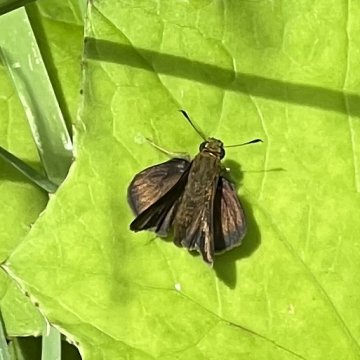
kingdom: Animalia
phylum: Arthropoda
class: Insecta
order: Lepidoptera
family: Hesperiidae
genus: Euphyes
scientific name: Euphyes vestris
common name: Dun Skipper
